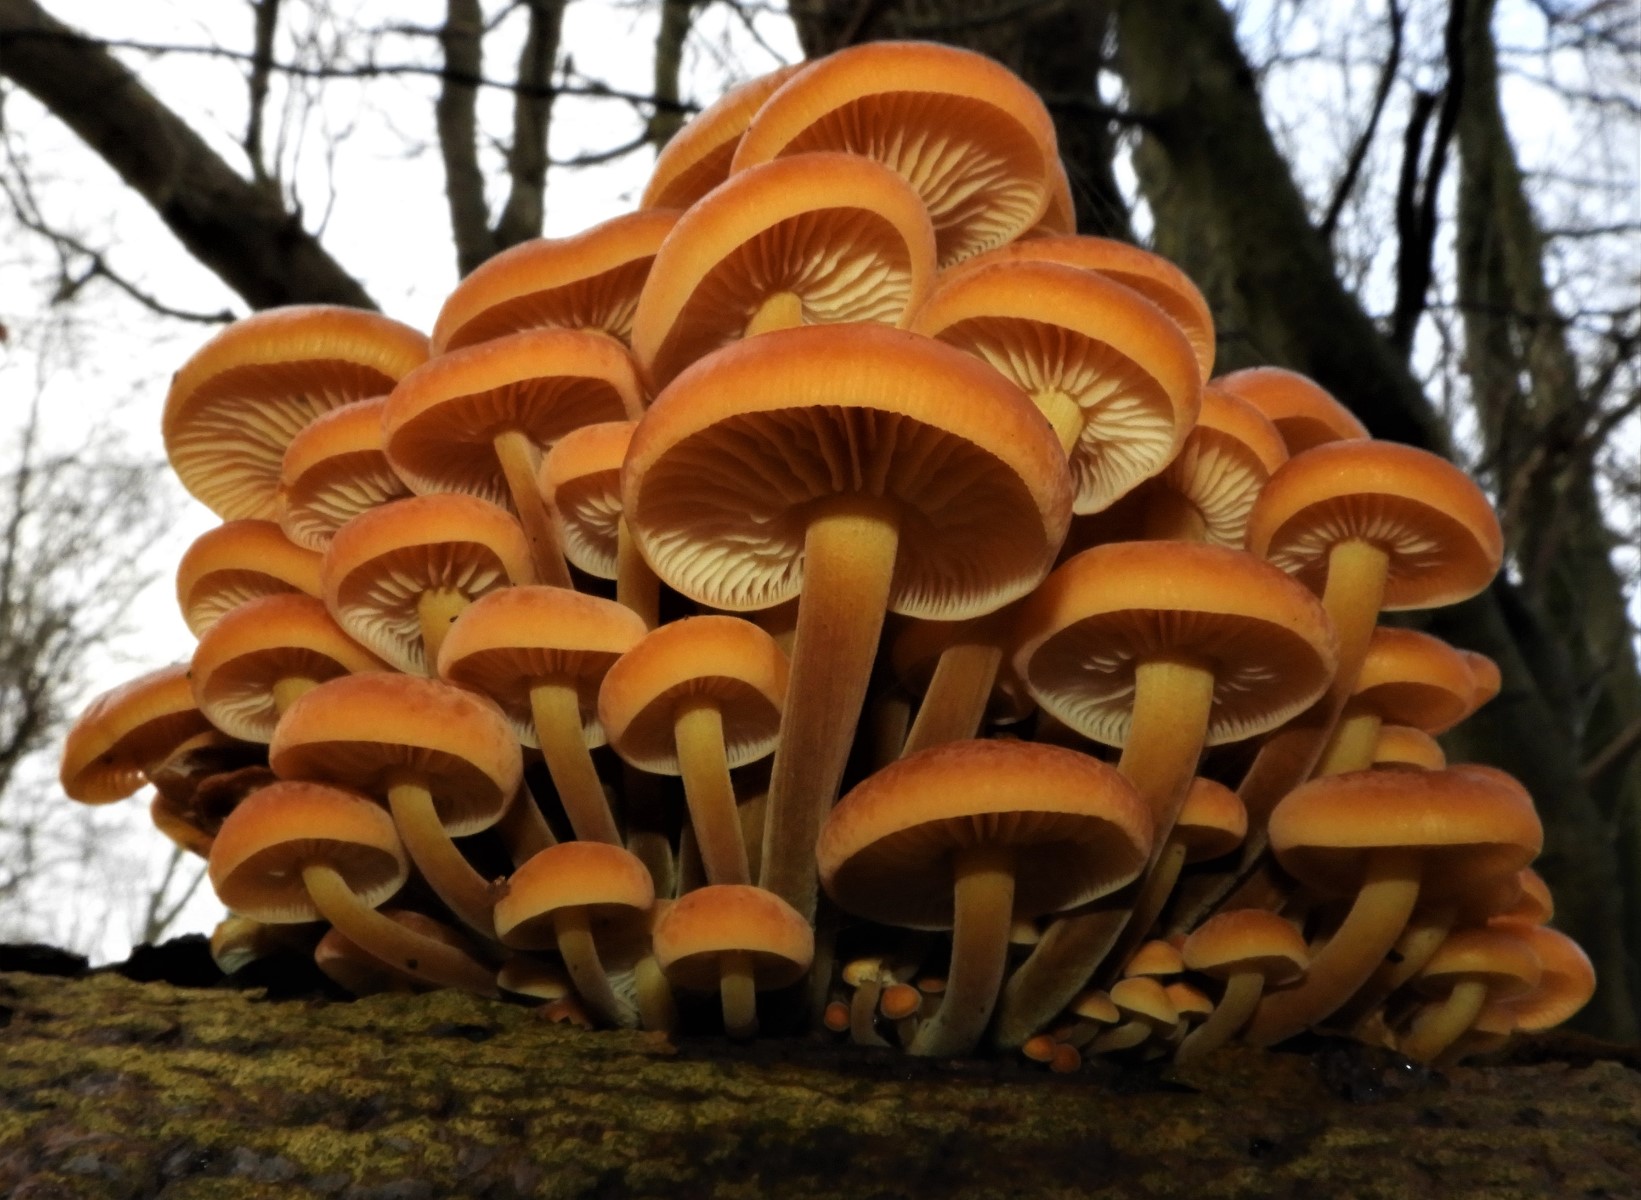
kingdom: Fungi
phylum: Basidiomycota
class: Agaricomycetes
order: Agaricales
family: Physalacriaceae
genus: Flammulina
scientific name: Flammulina velutipes
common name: gul fløjlsfod
